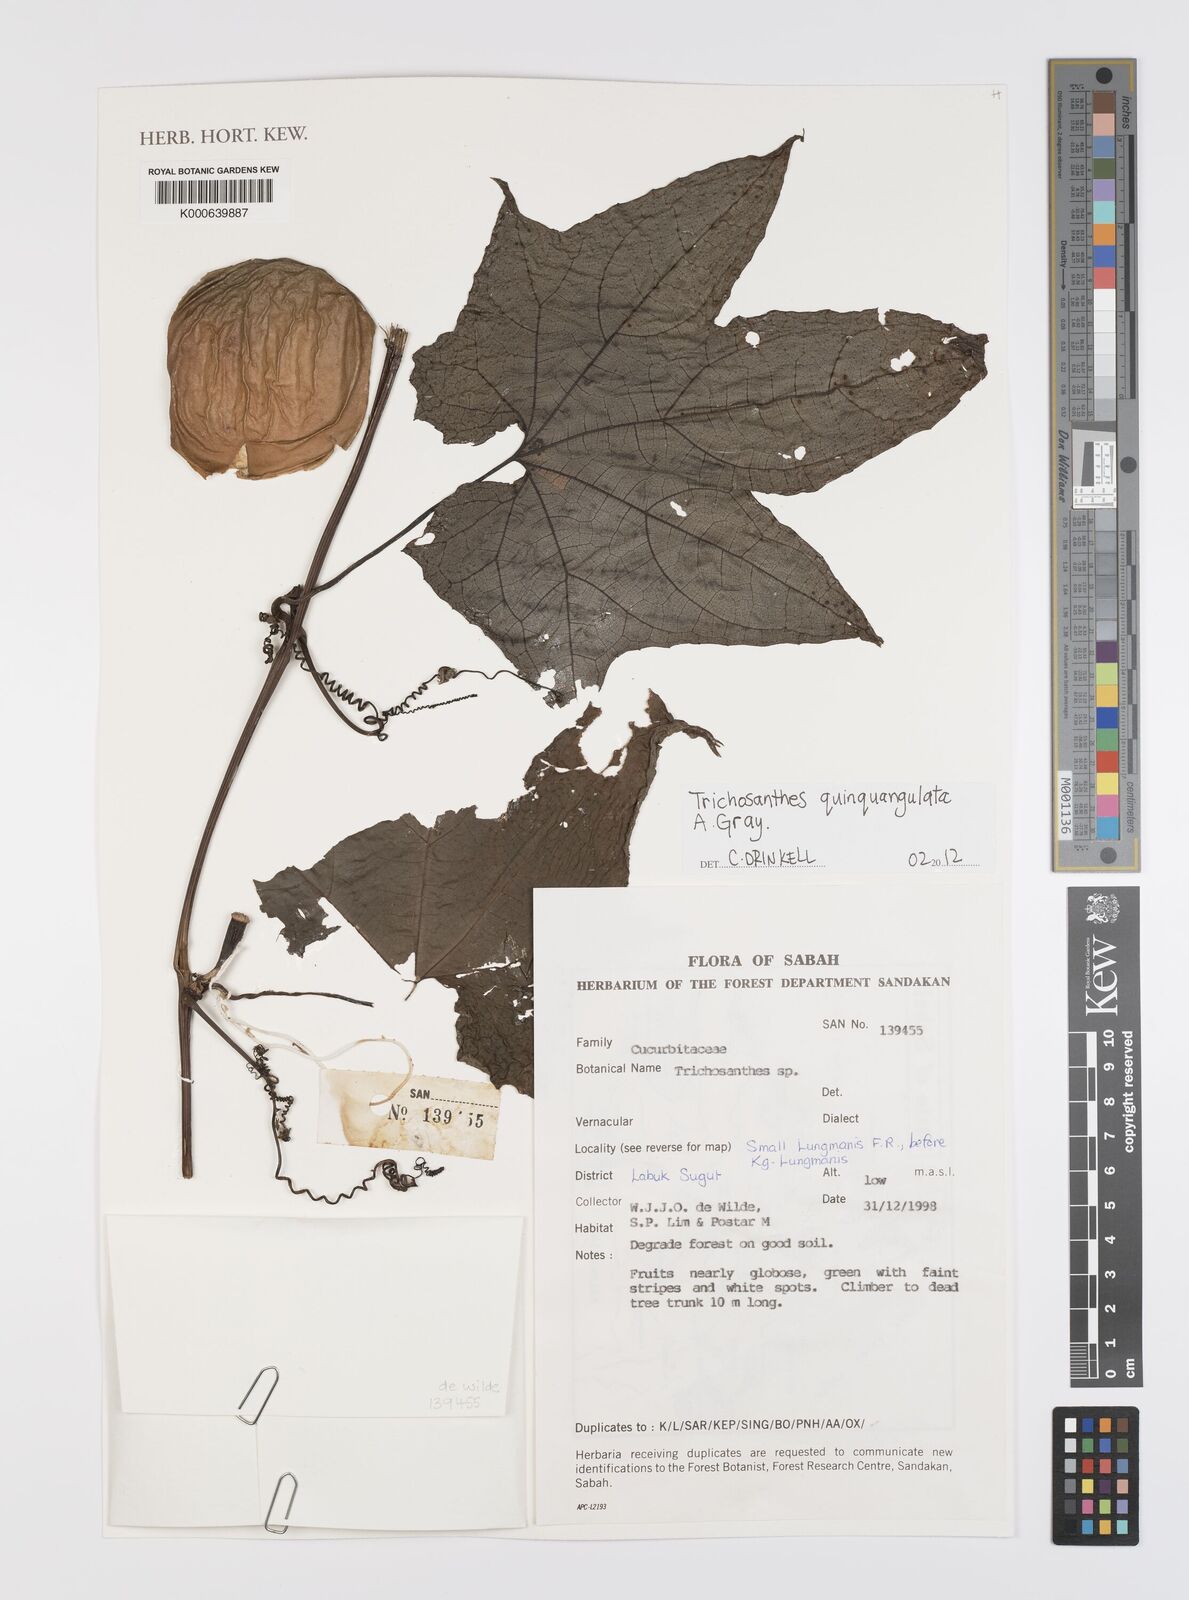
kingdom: Plantae
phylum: Tracheophyta
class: Magnoliopsida
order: Cucurbitales
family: Cucurbitaceae
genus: Trichosanthes
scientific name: Trichosanthes quinquangulata
